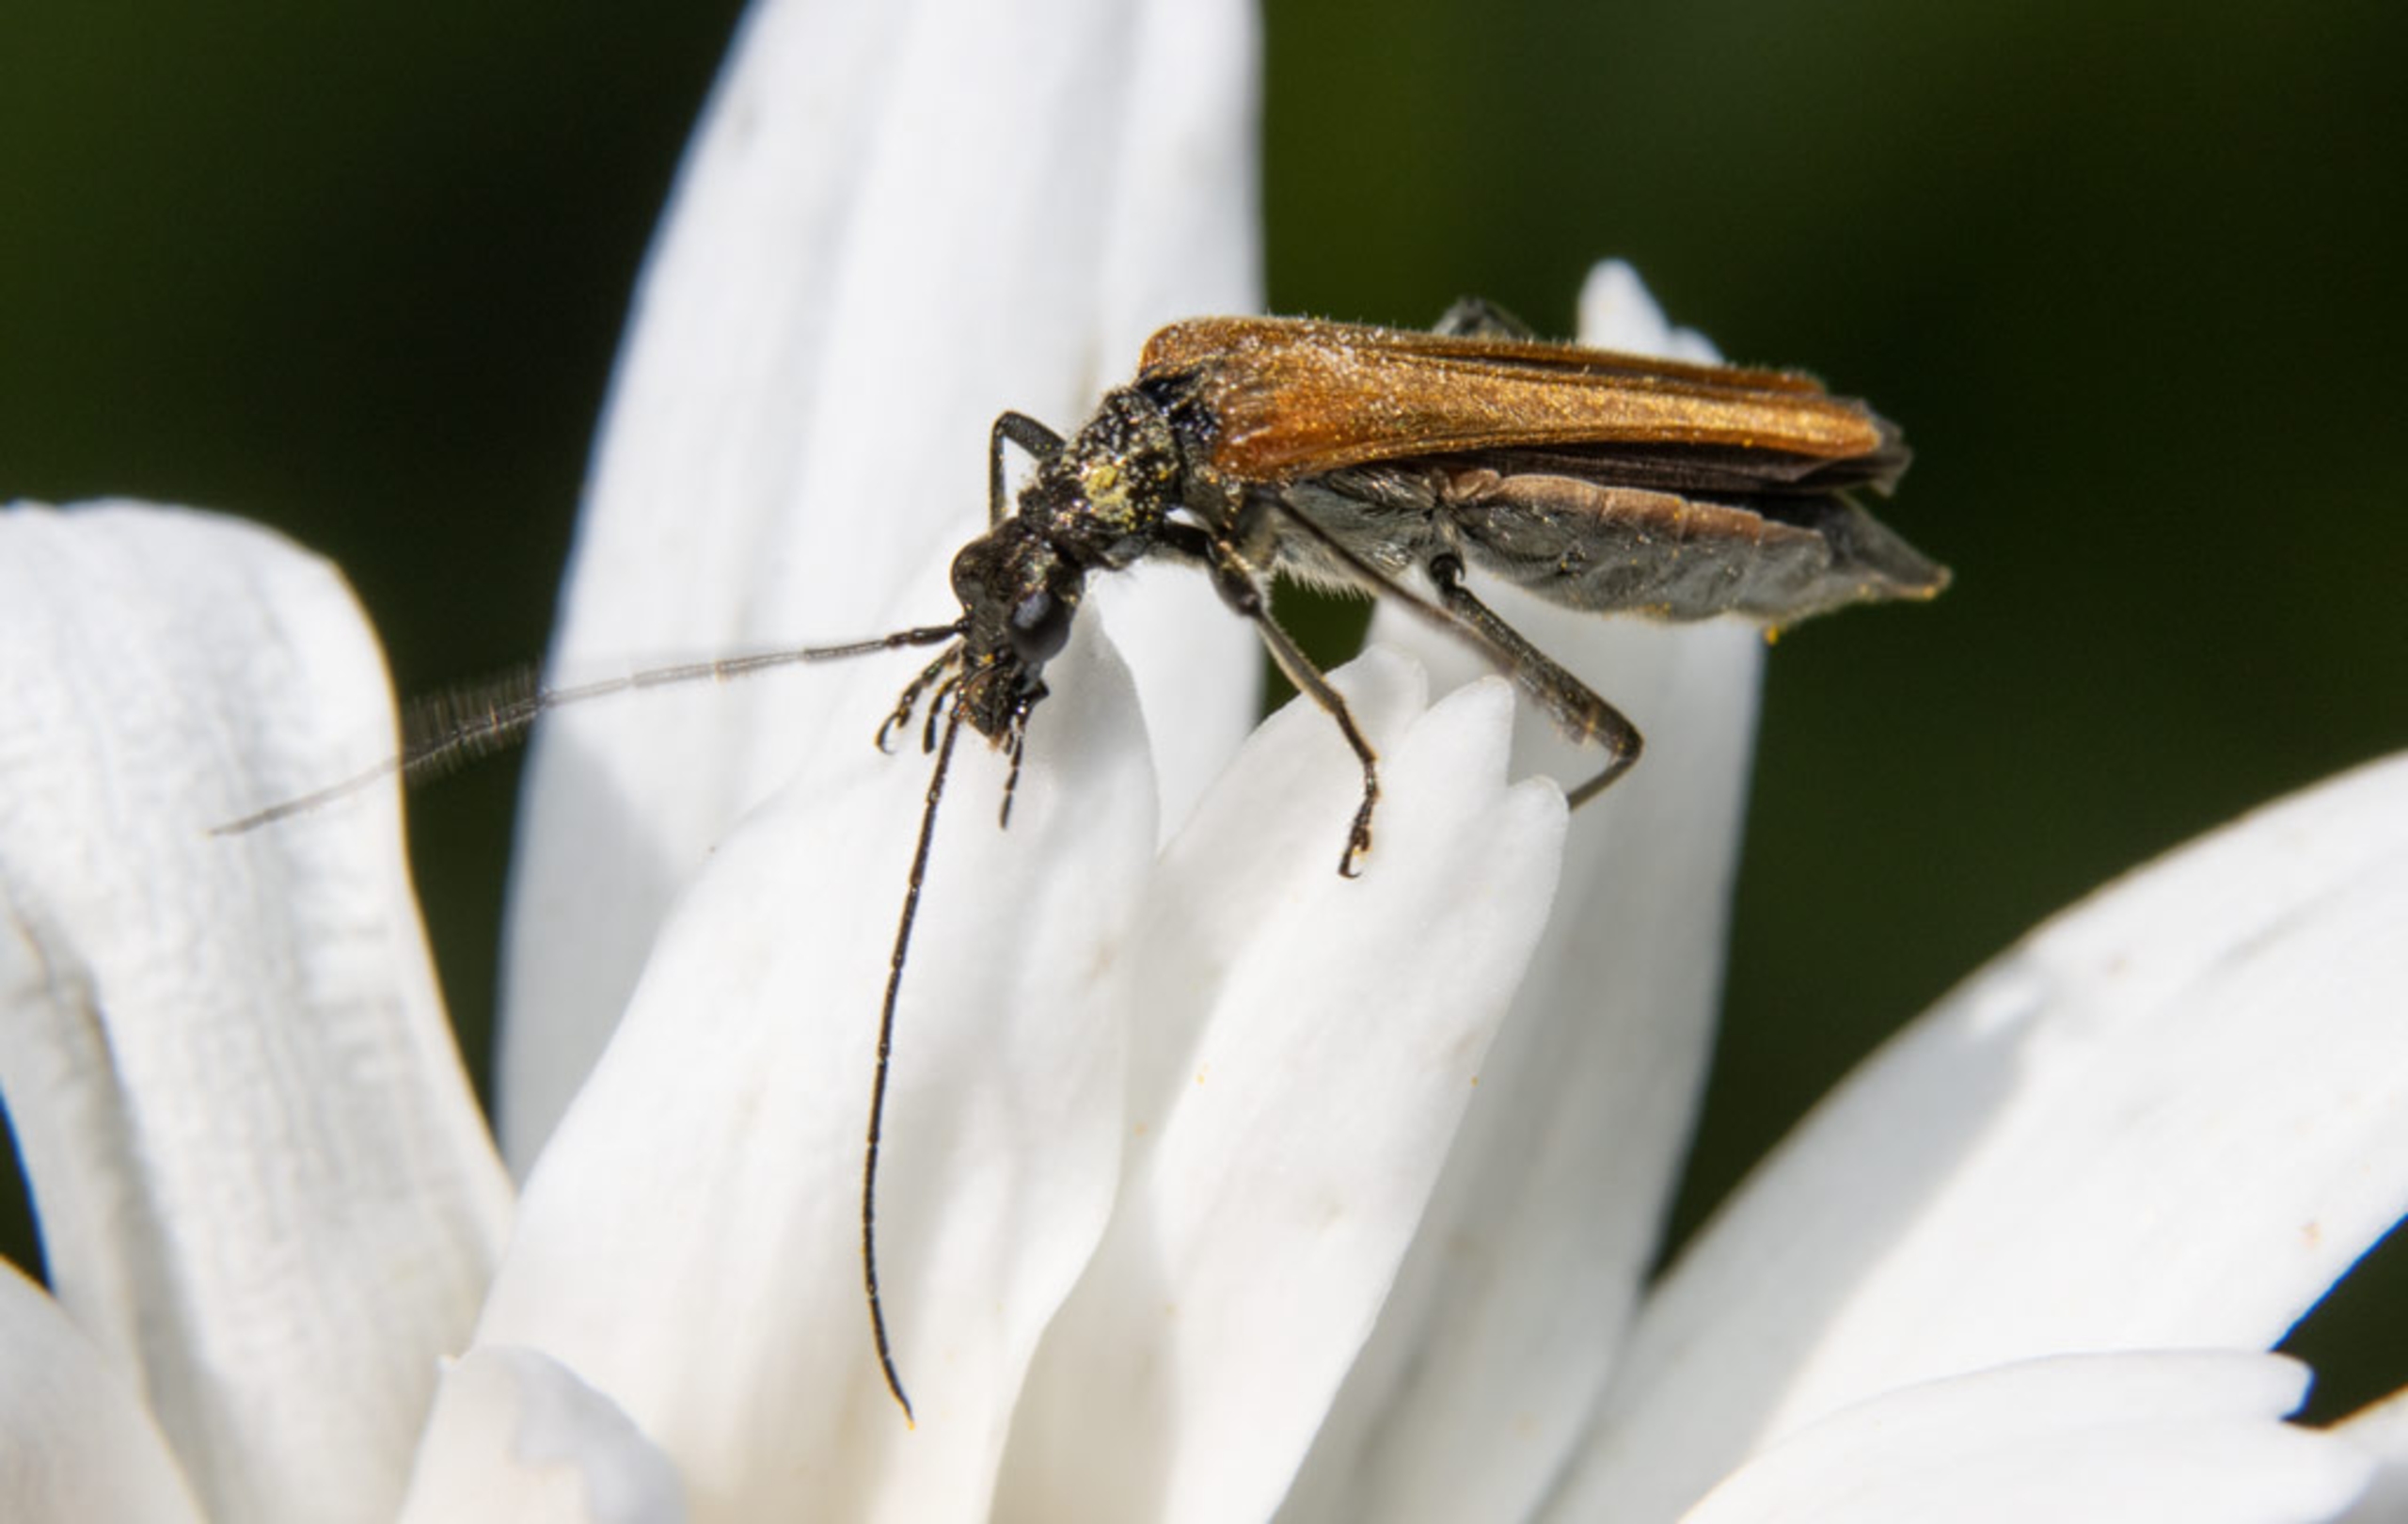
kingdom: Animalia
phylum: Arthropoda
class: Insecta
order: Coleoptera
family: Oedemeridae
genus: Oedemera
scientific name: Oedemera femorata
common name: Gulvinget solbille
